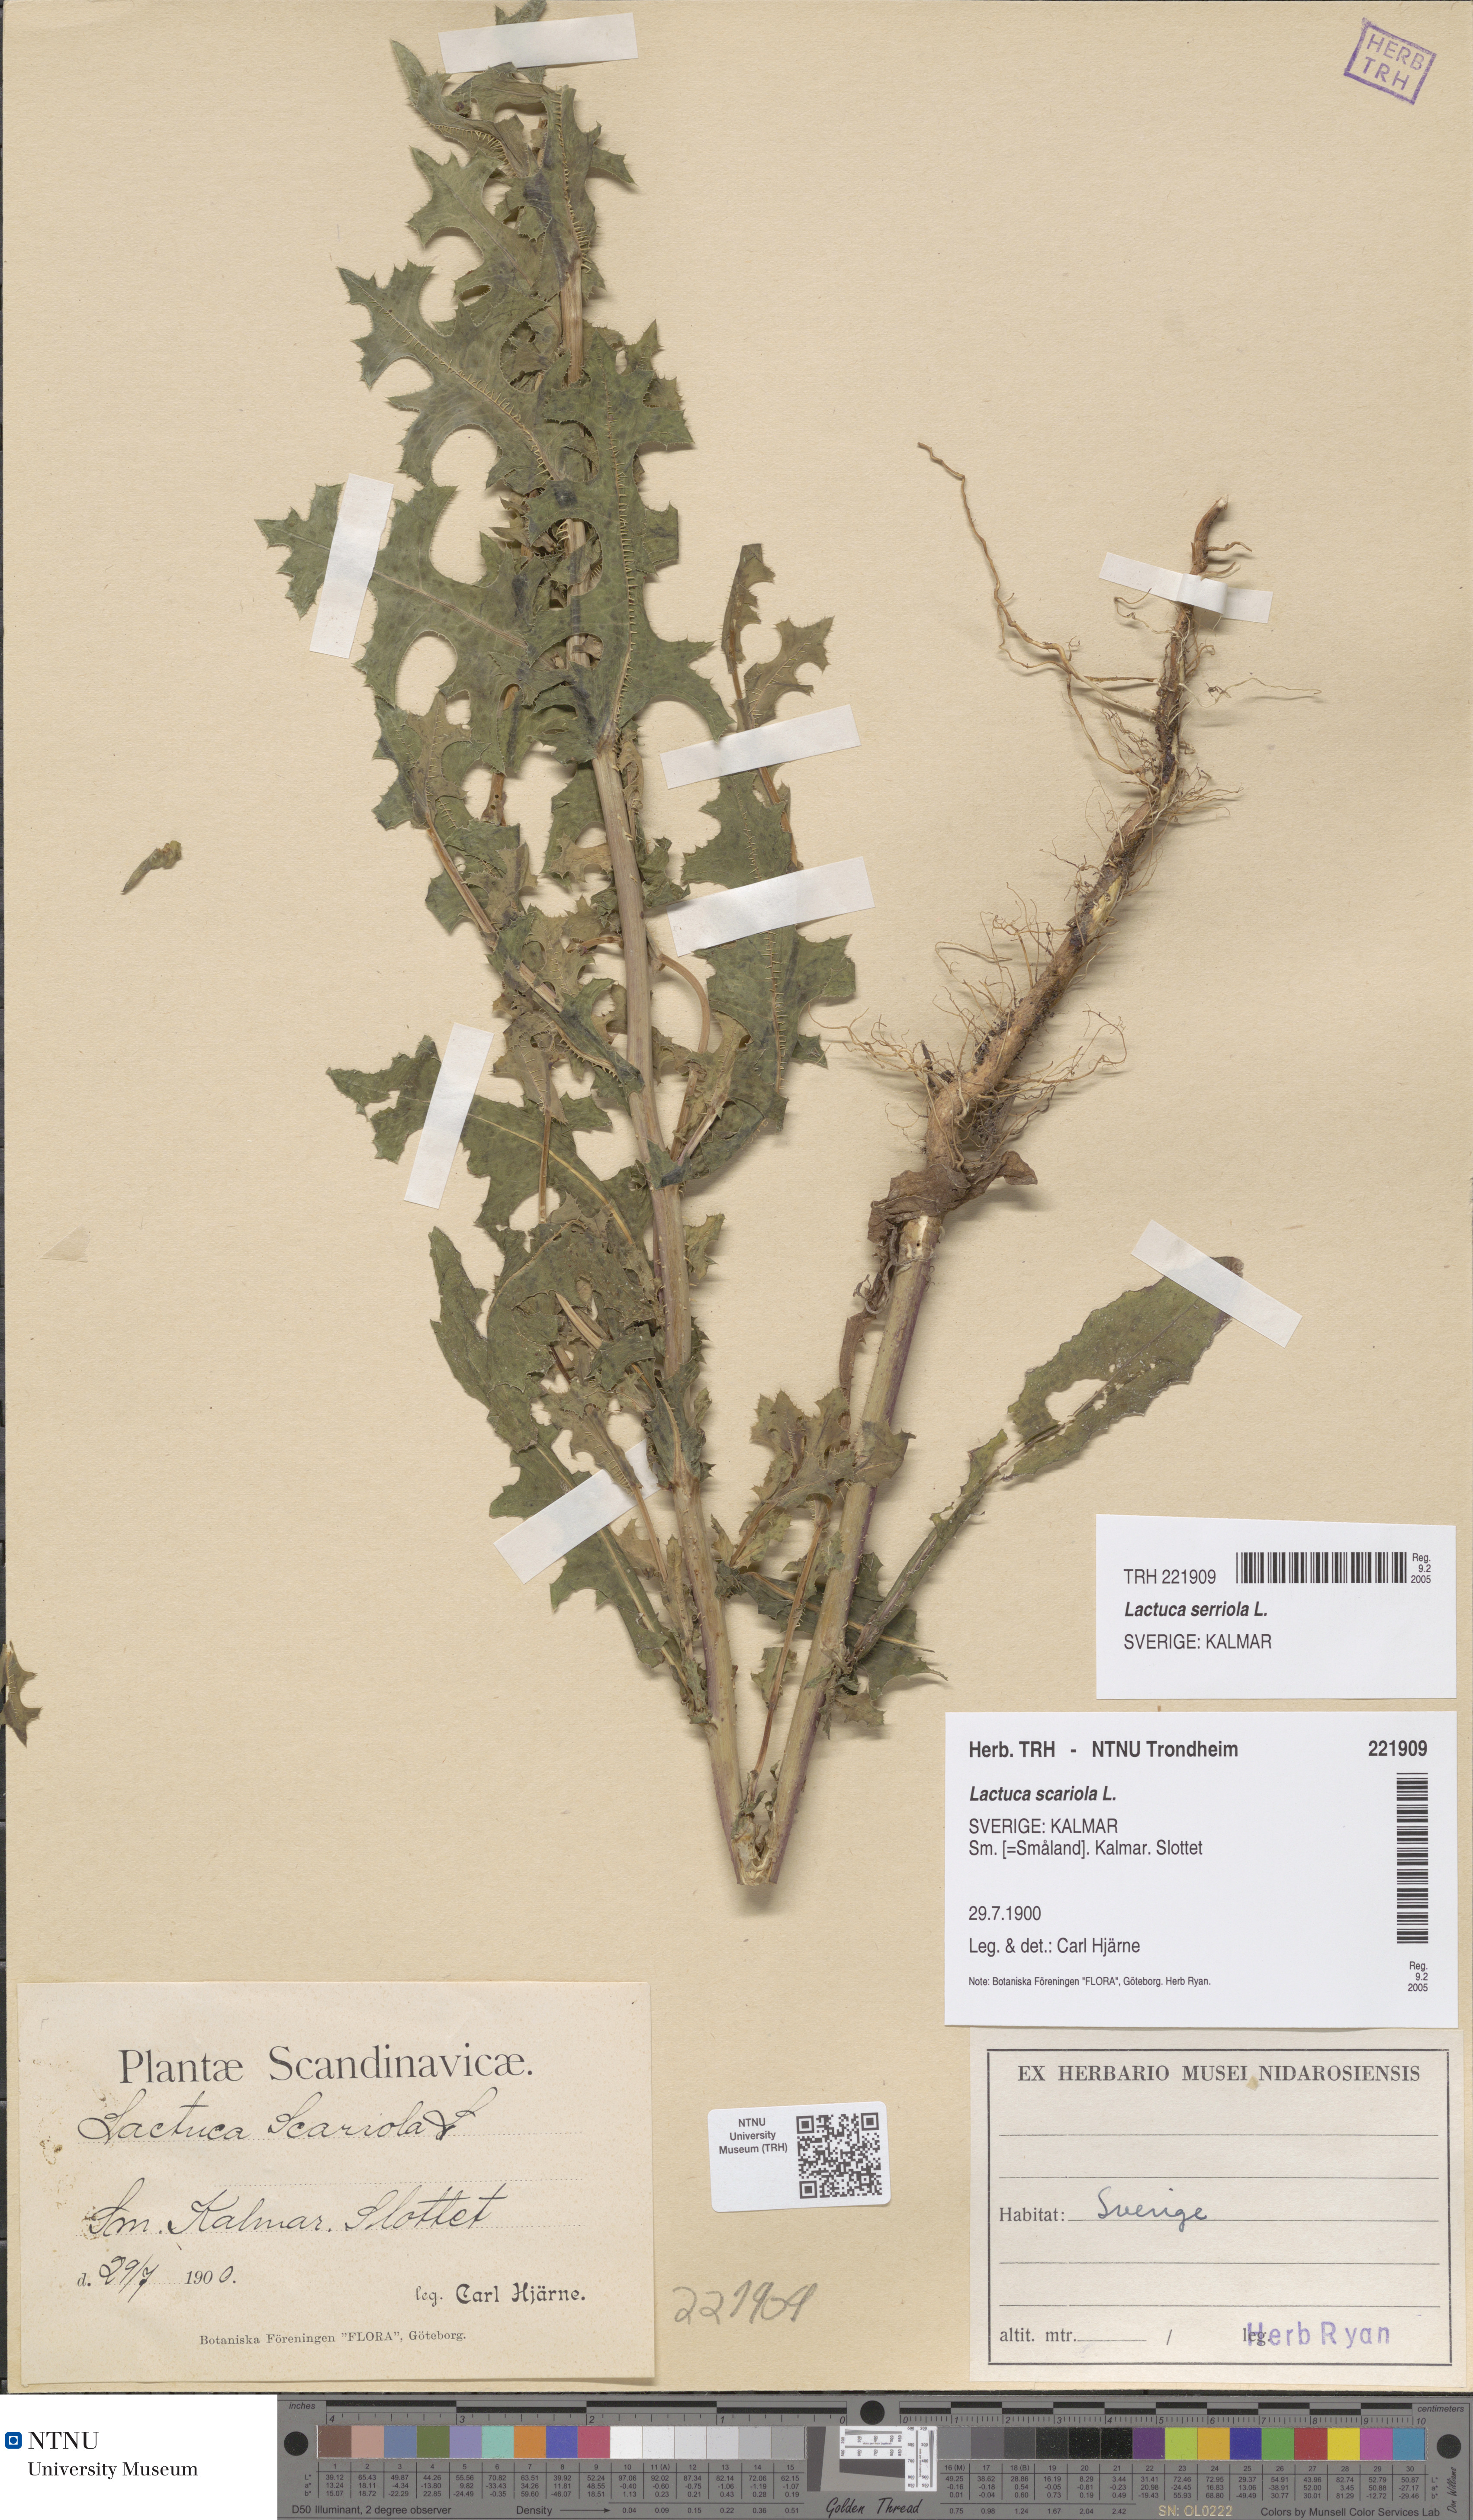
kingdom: Plantae
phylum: Tracheophyta
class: Magnoliopsida
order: Asterales
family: Asteraceae
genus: Lactuca
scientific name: Lactuca serriola
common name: Prickly lettuce
